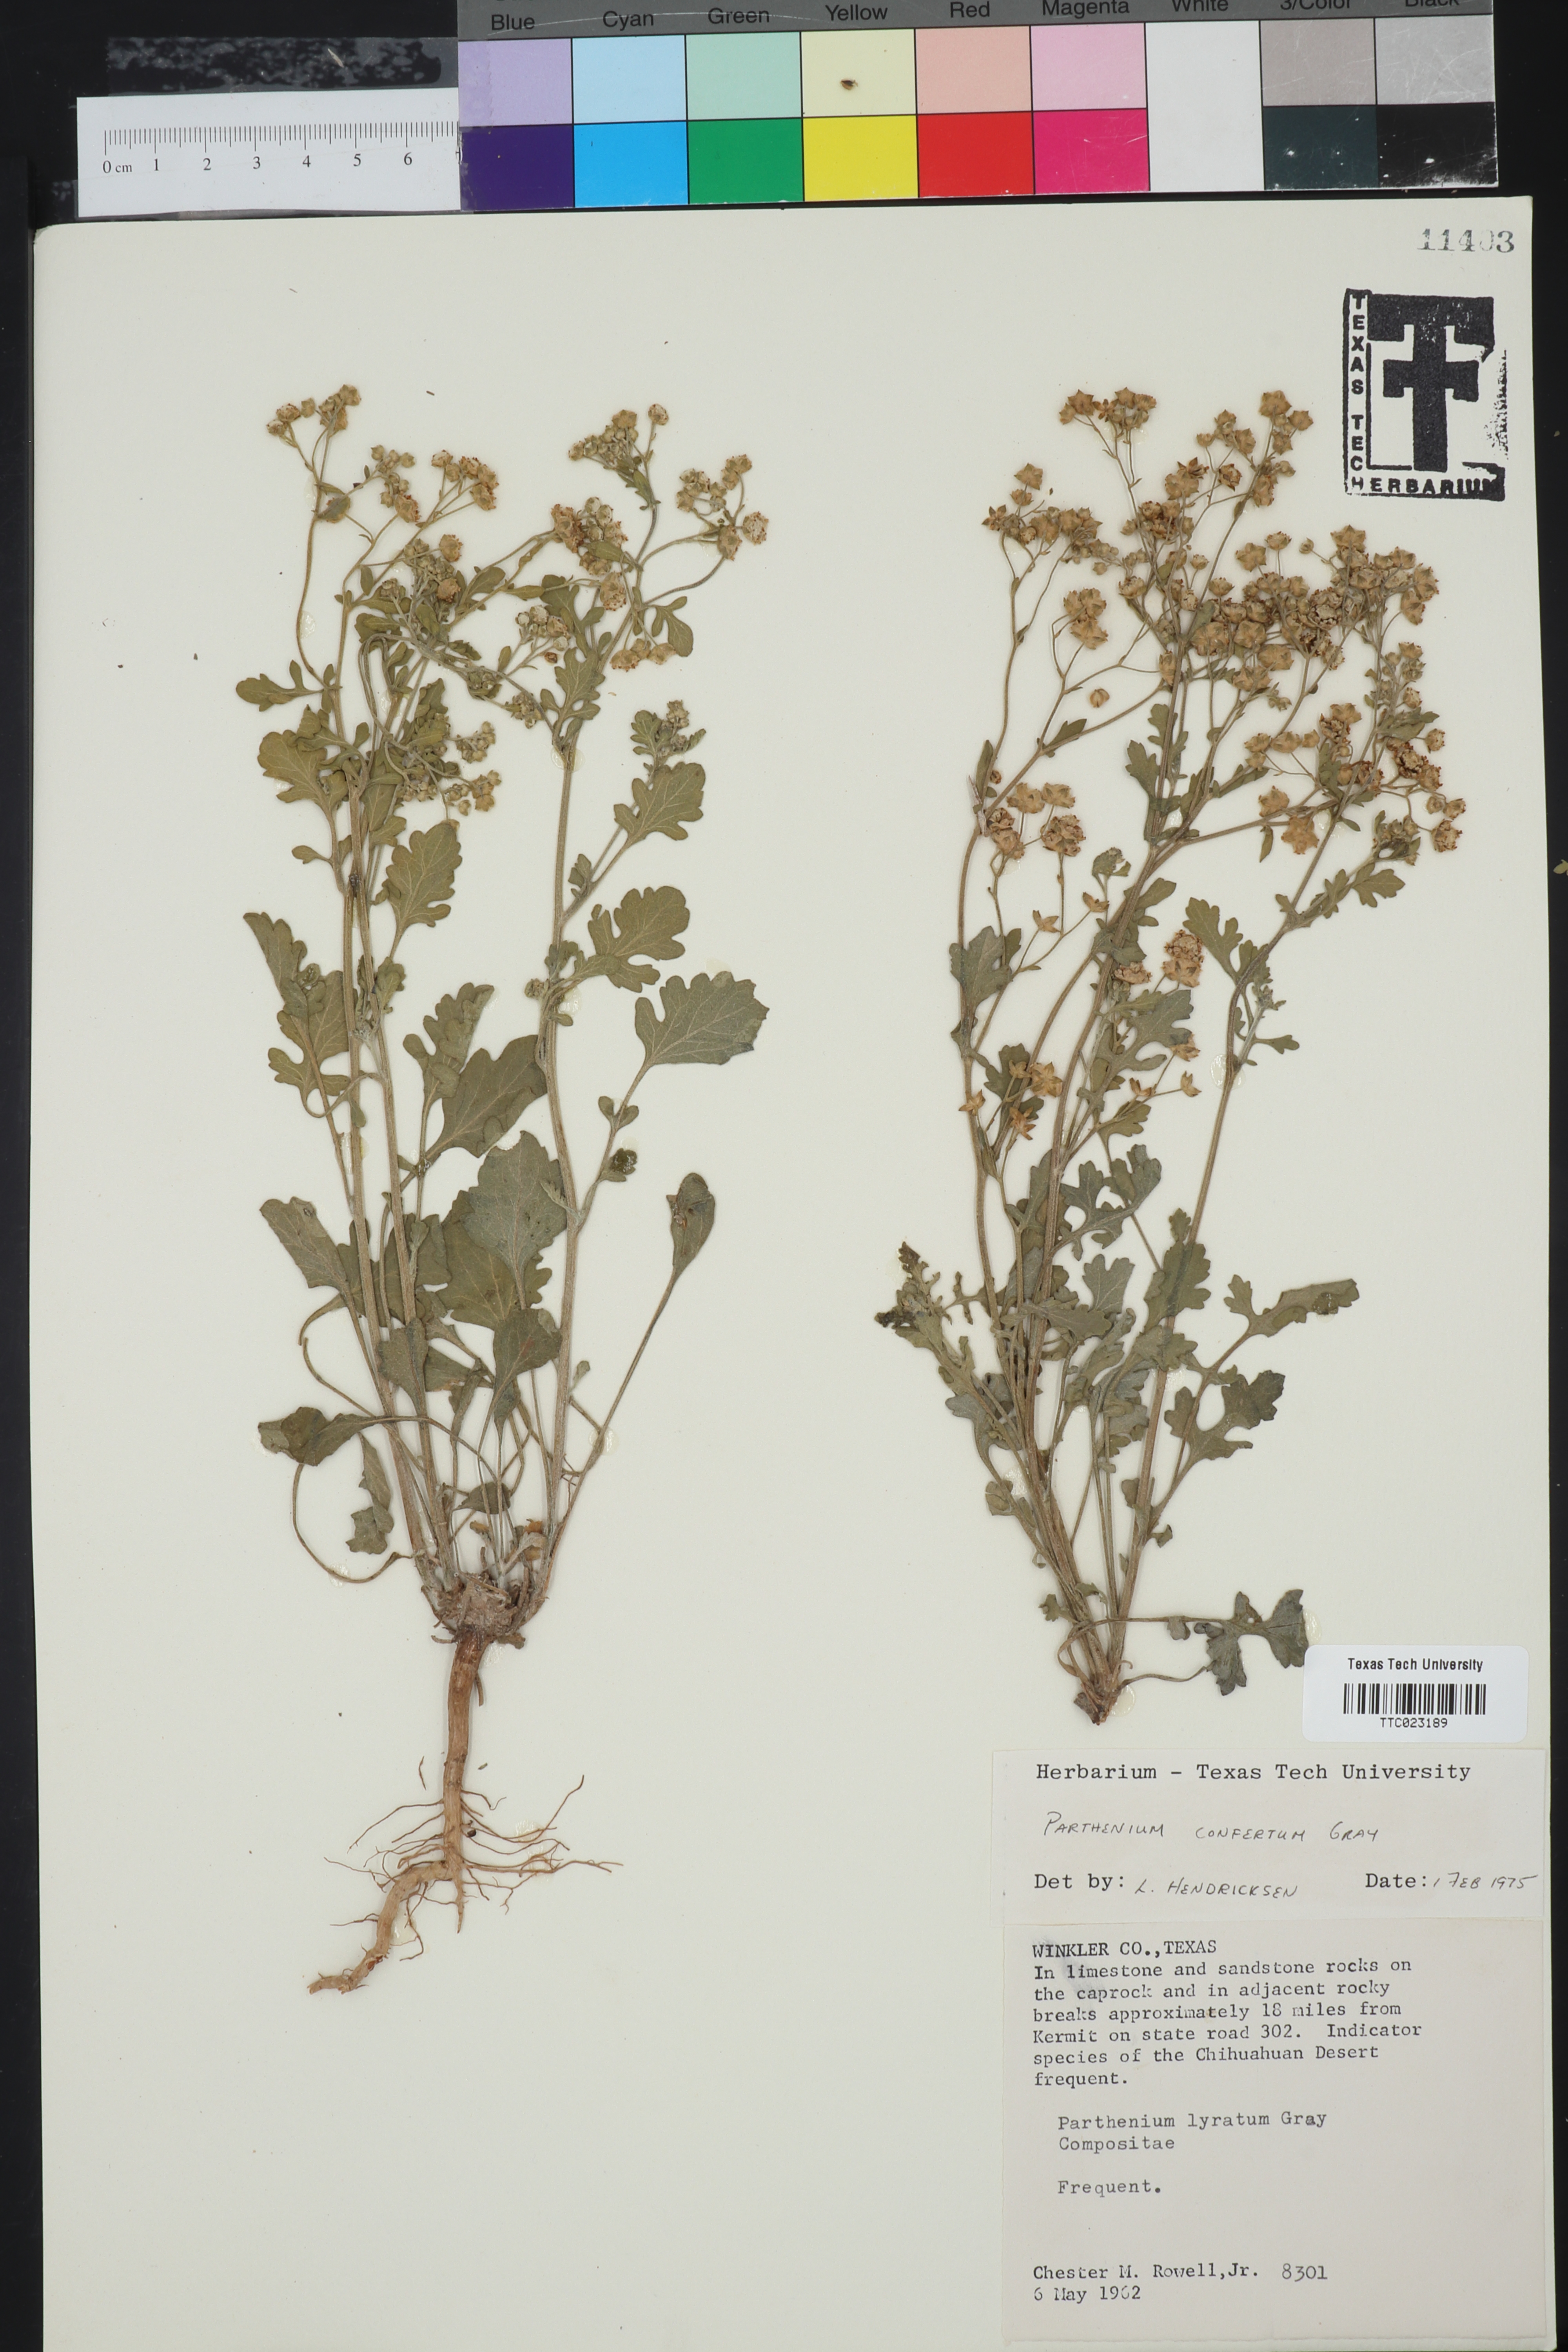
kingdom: Plantae
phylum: Tracheophyta
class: Magnoliopsida
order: Asterales
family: Asteraceae
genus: Parthenium
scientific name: Parthenium confertum
